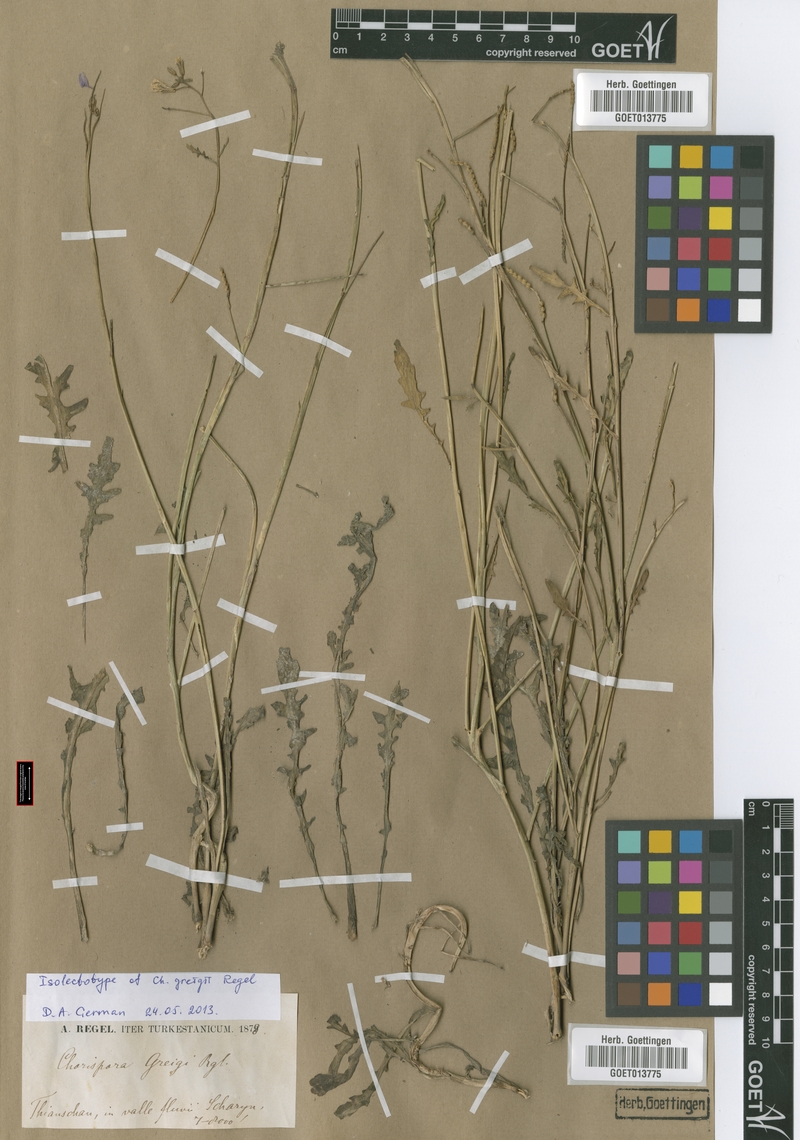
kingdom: Plantae
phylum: Tracheophyta
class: Magnoliopsida
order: Brassicales
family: Brassicaceae
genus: Chorispora
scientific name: Chorispora greigii
